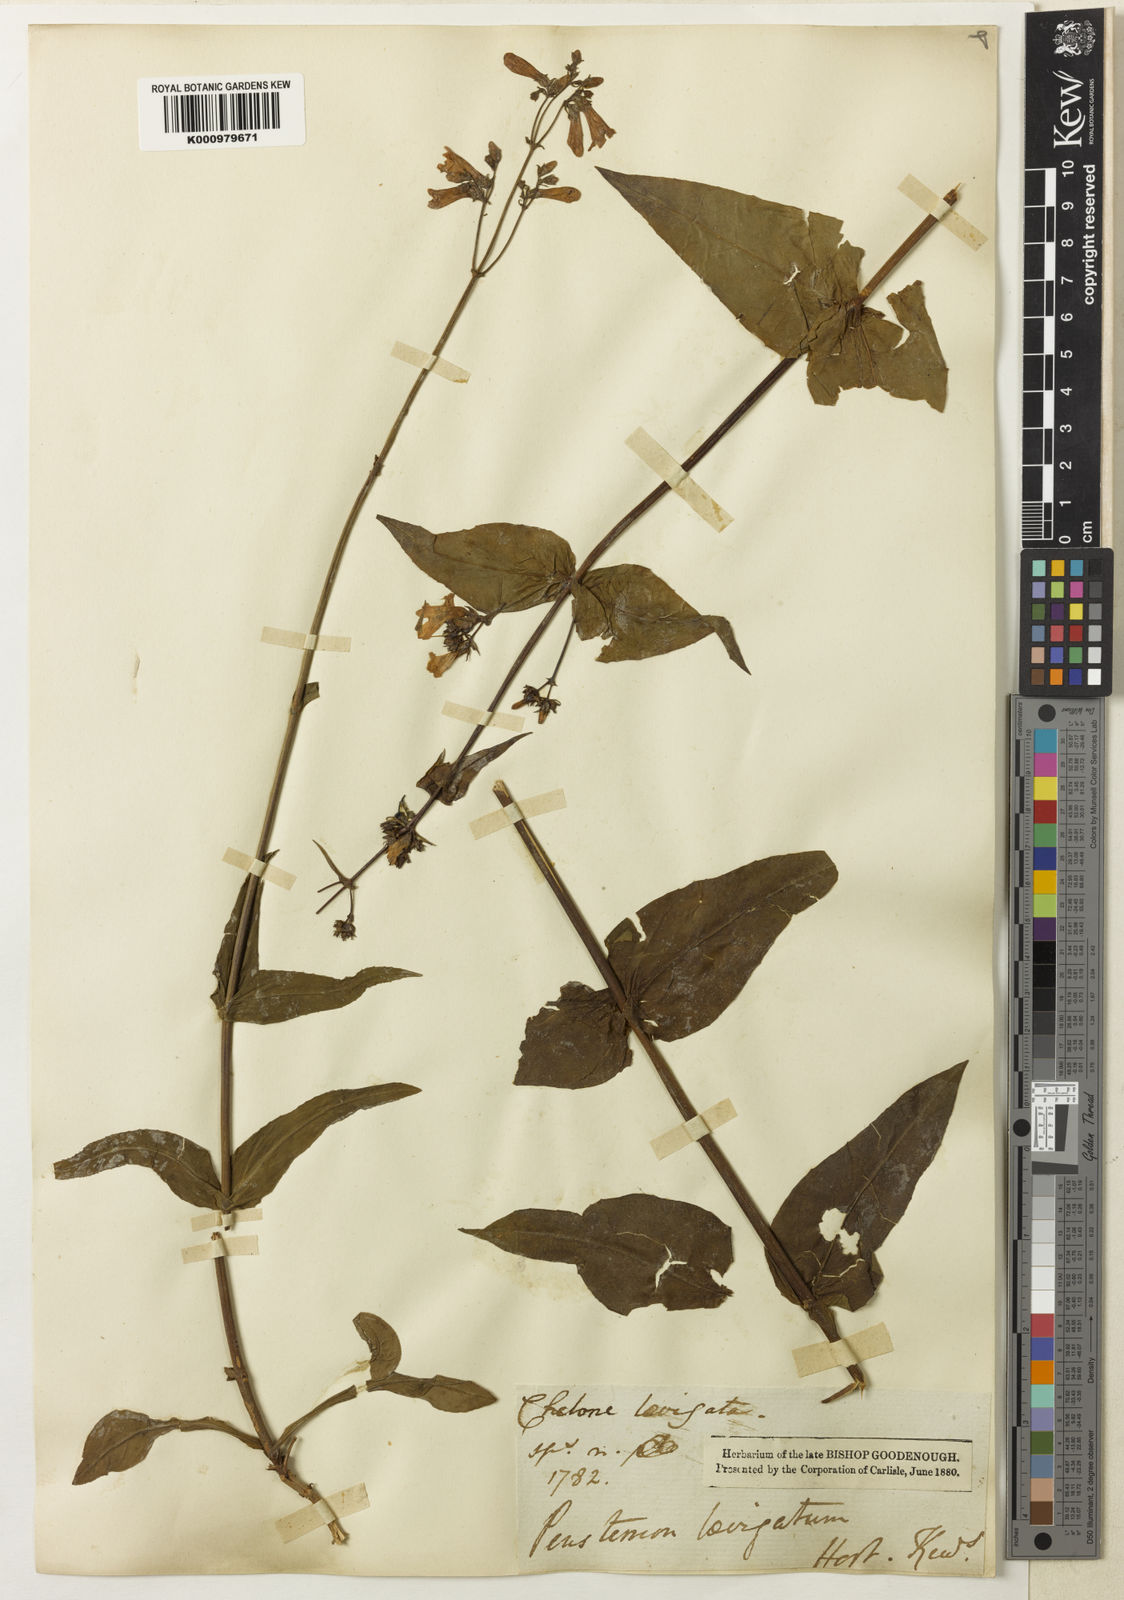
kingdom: Plantae
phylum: Tracheophyta
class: Magnoliopsida
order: Lamiales
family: Plantaginaceae
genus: Penstemon
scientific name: Penstemon laevigatus
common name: Eastern beardtongue
